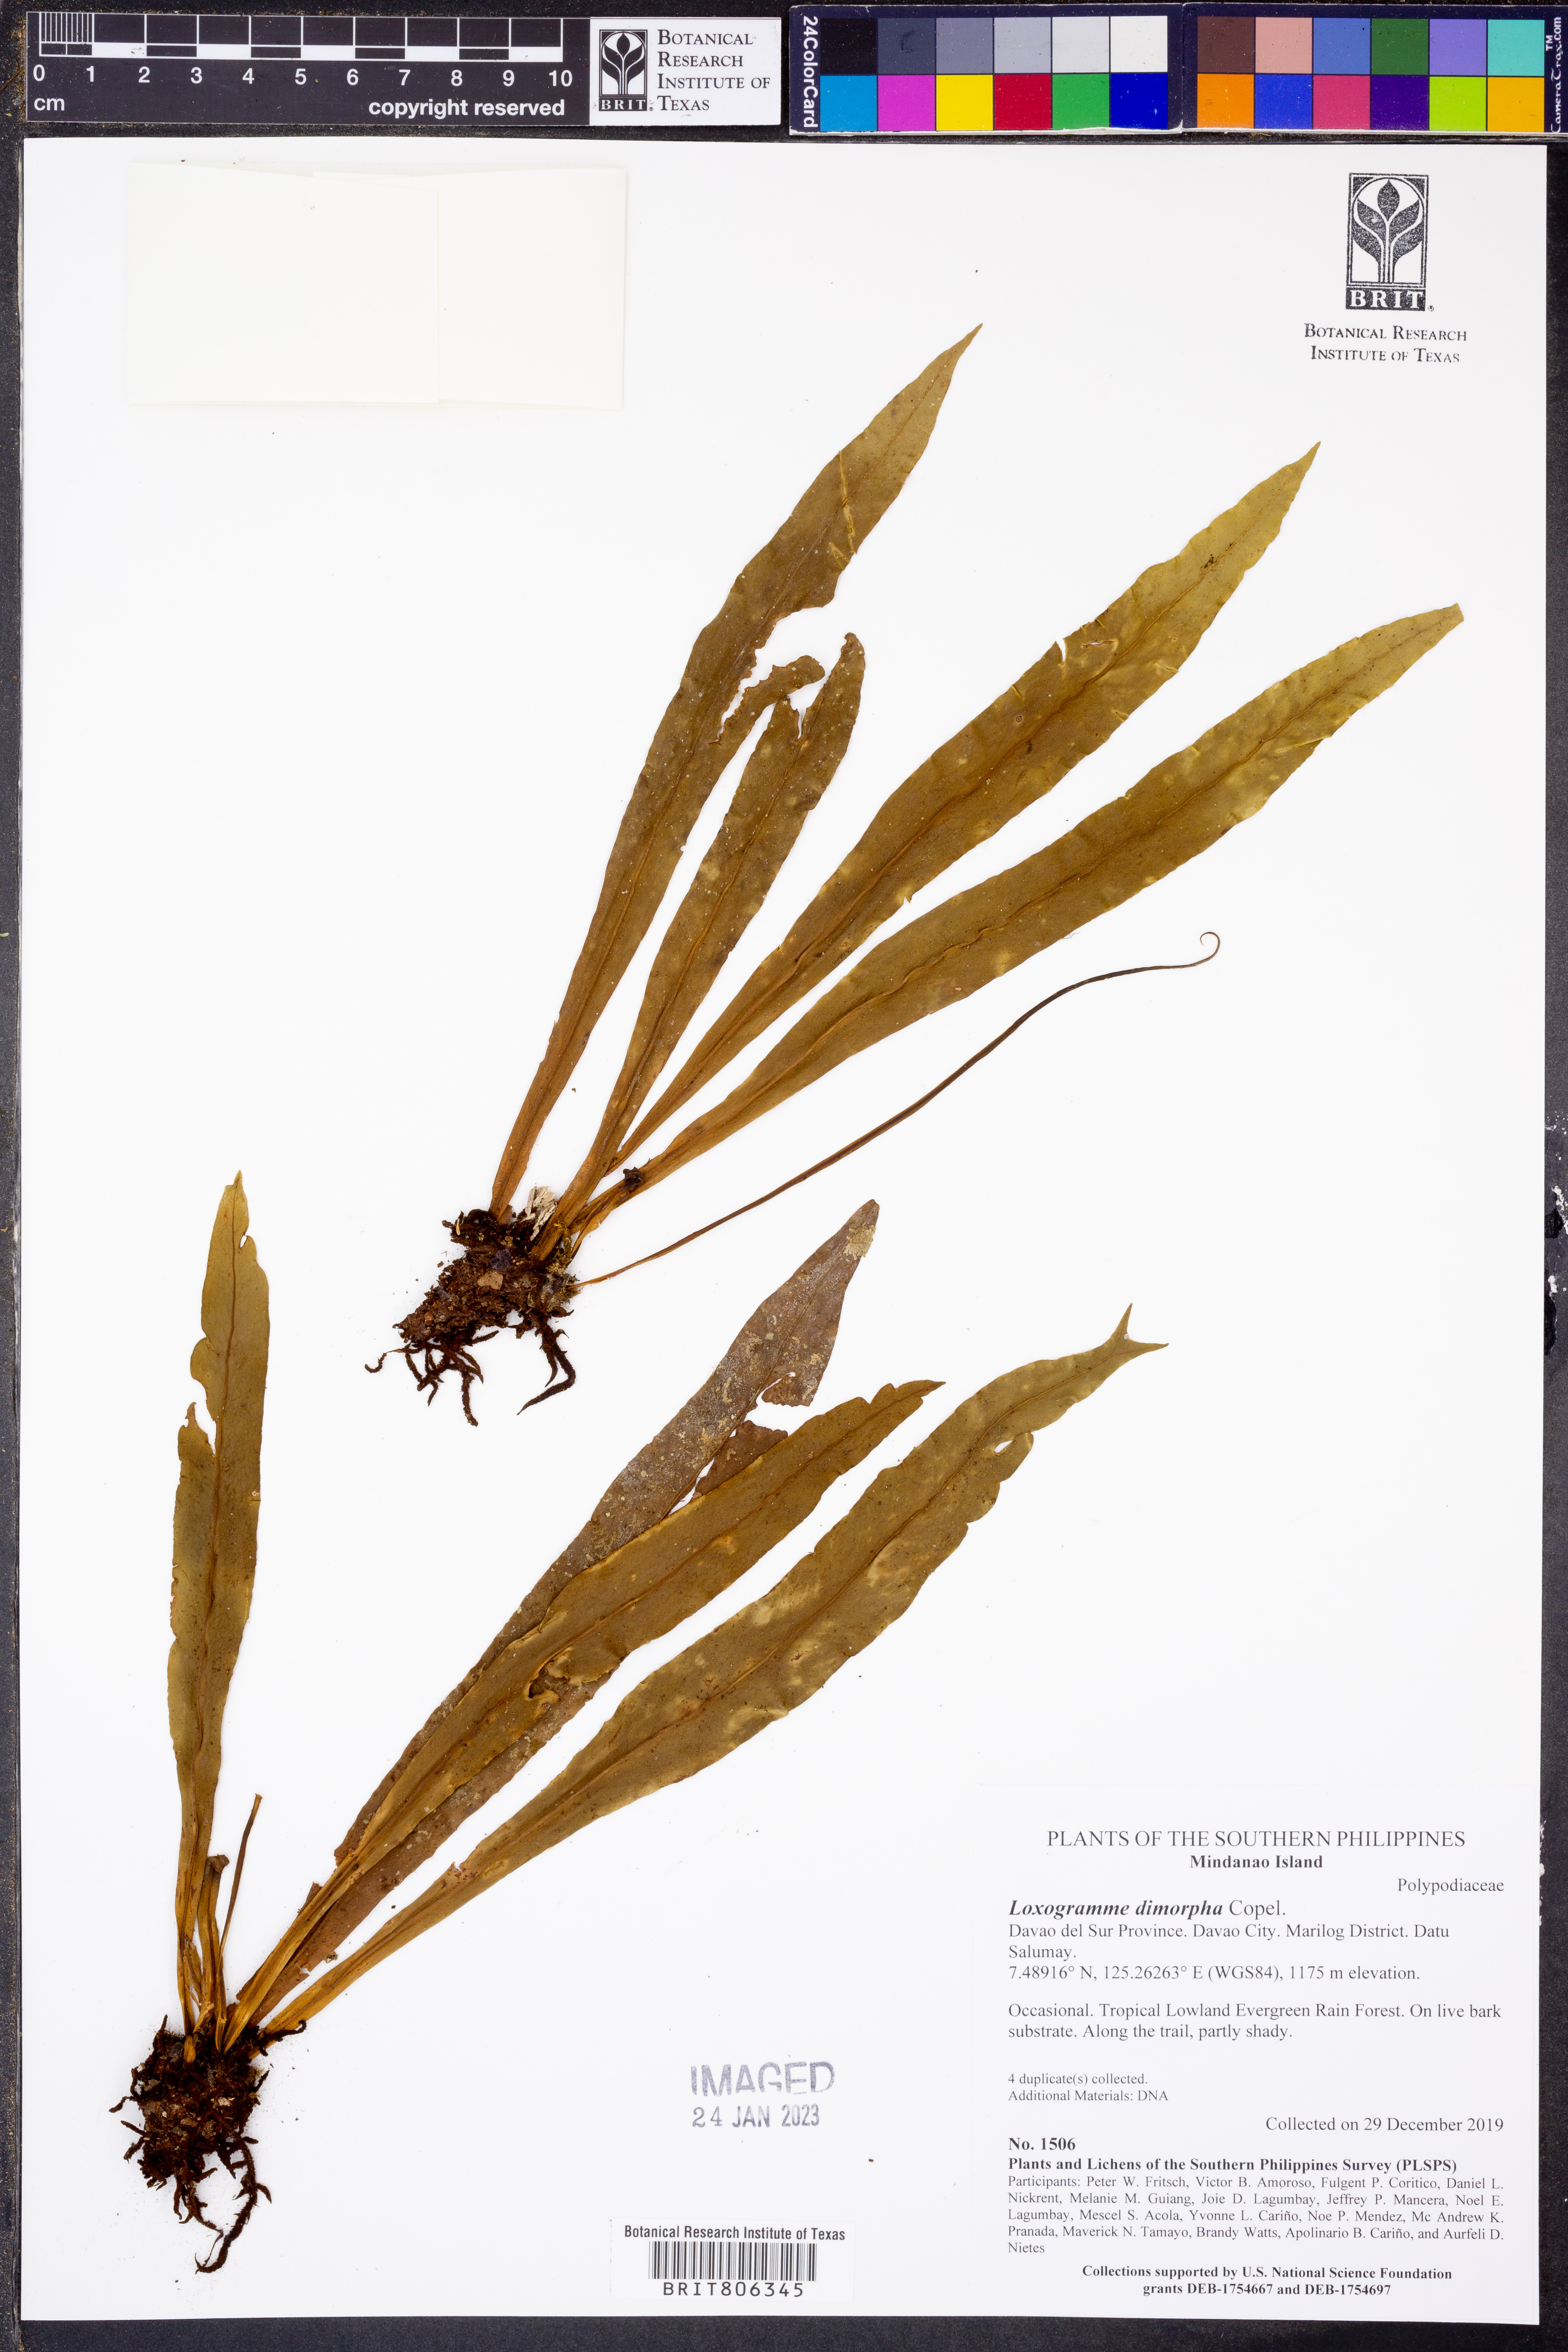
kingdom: Plantae
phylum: Tracheophyta
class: Polypodiopsida
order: Polypodiales
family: Polypodiaceae
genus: Loxogramme
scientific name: Loxogramme dimorpha
